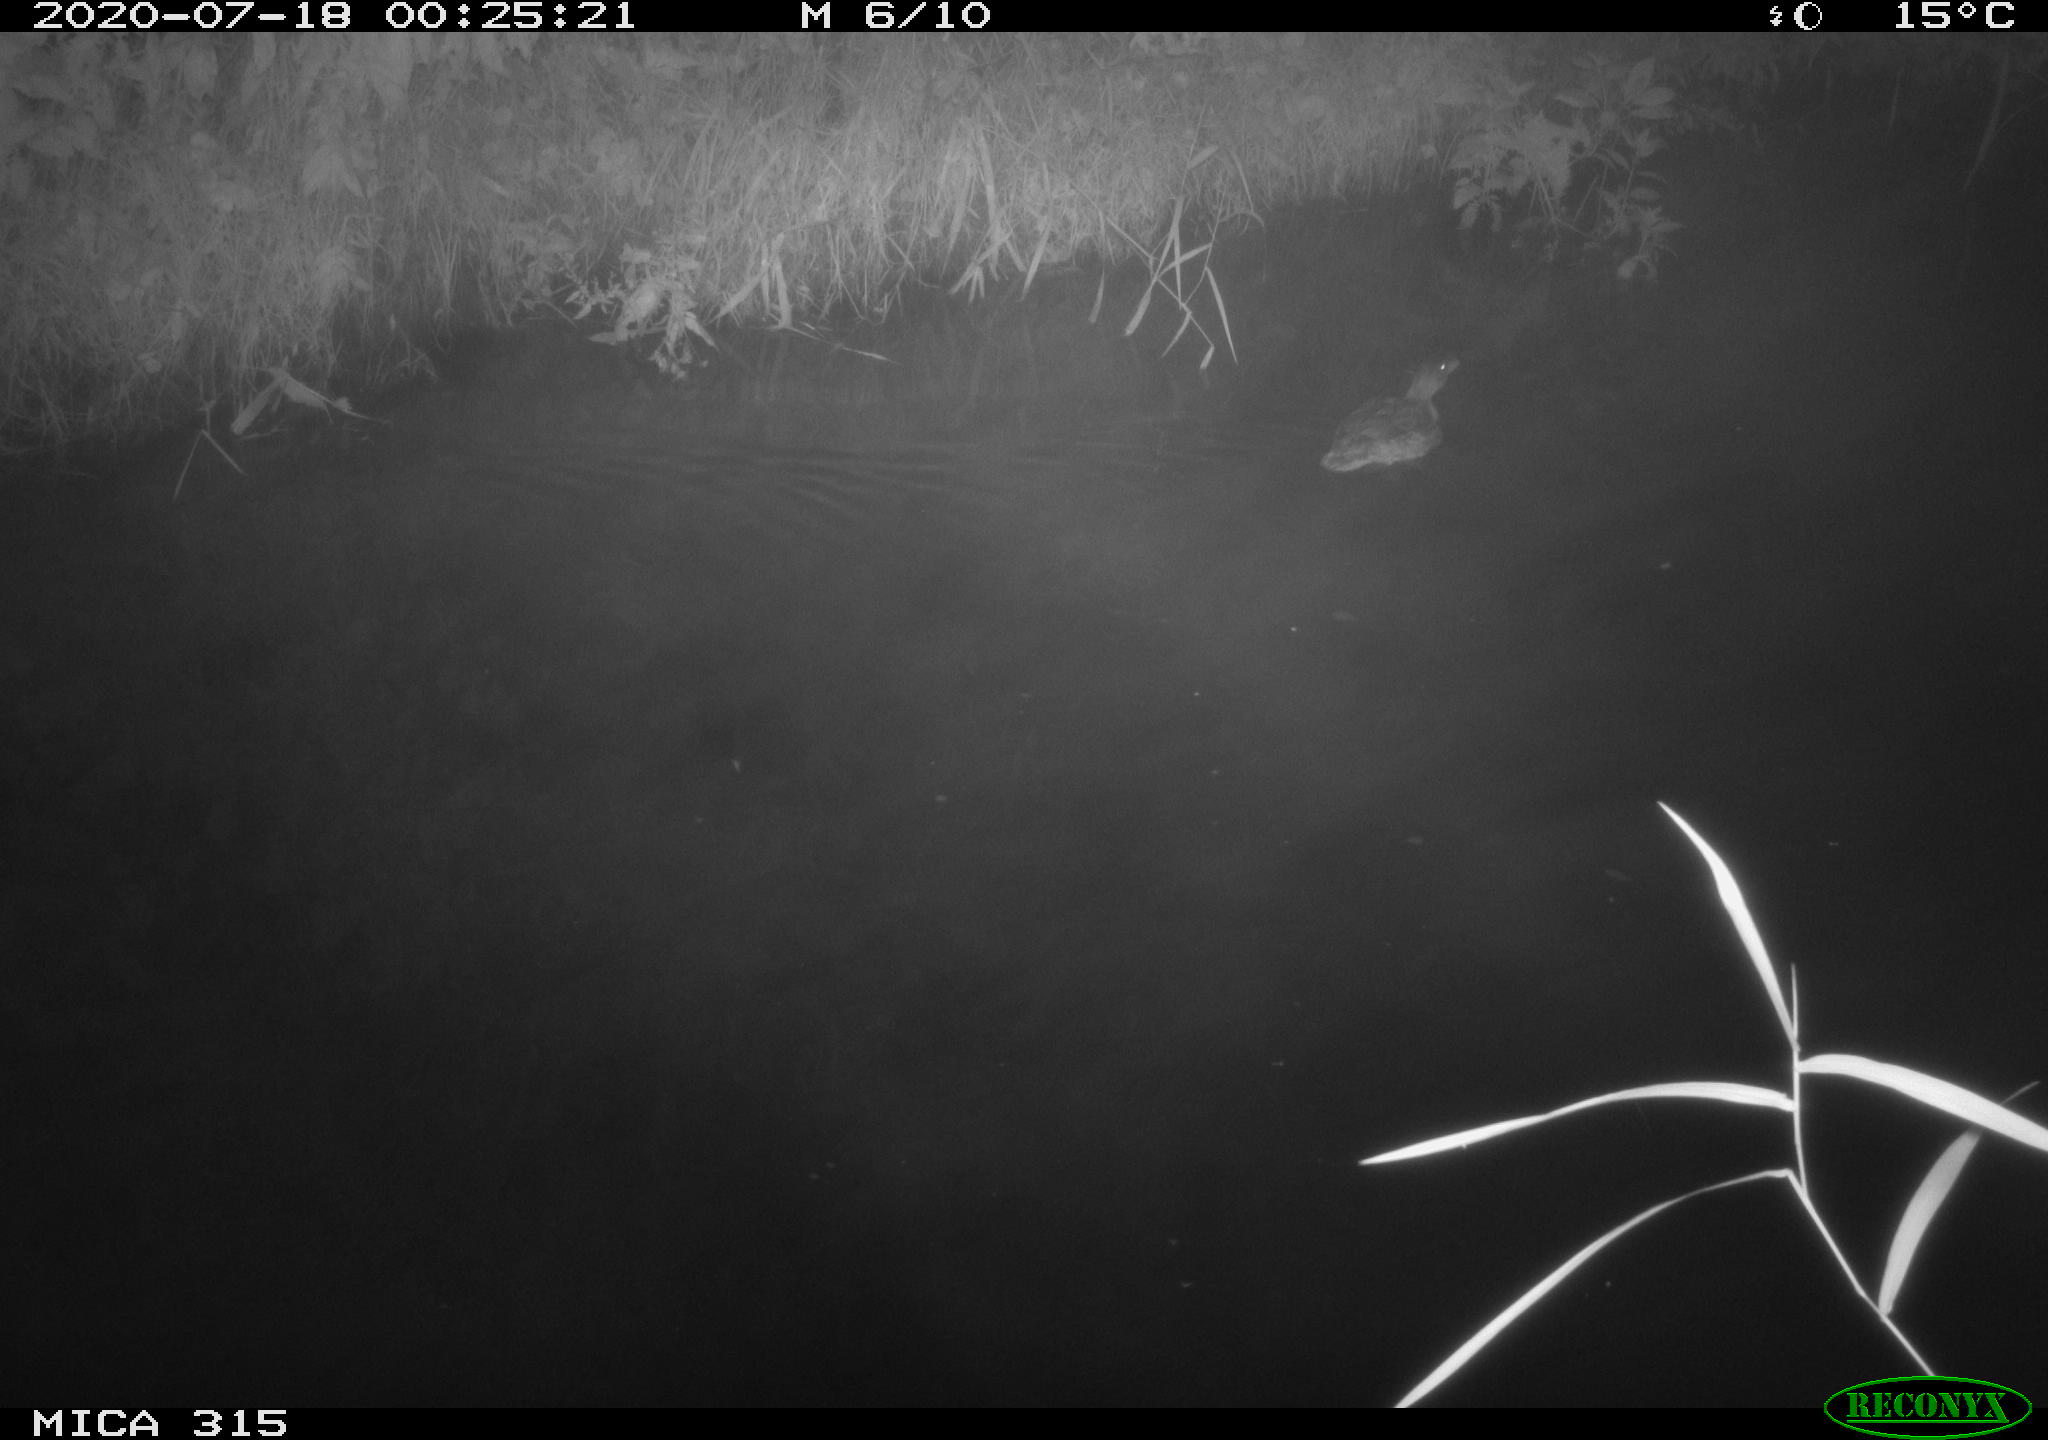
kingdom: Animalia
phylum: Chordata
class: Aves
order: Anseriformes
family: Anatidae
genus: Anas
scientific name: Anas platyrhynchos
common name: Mallard
